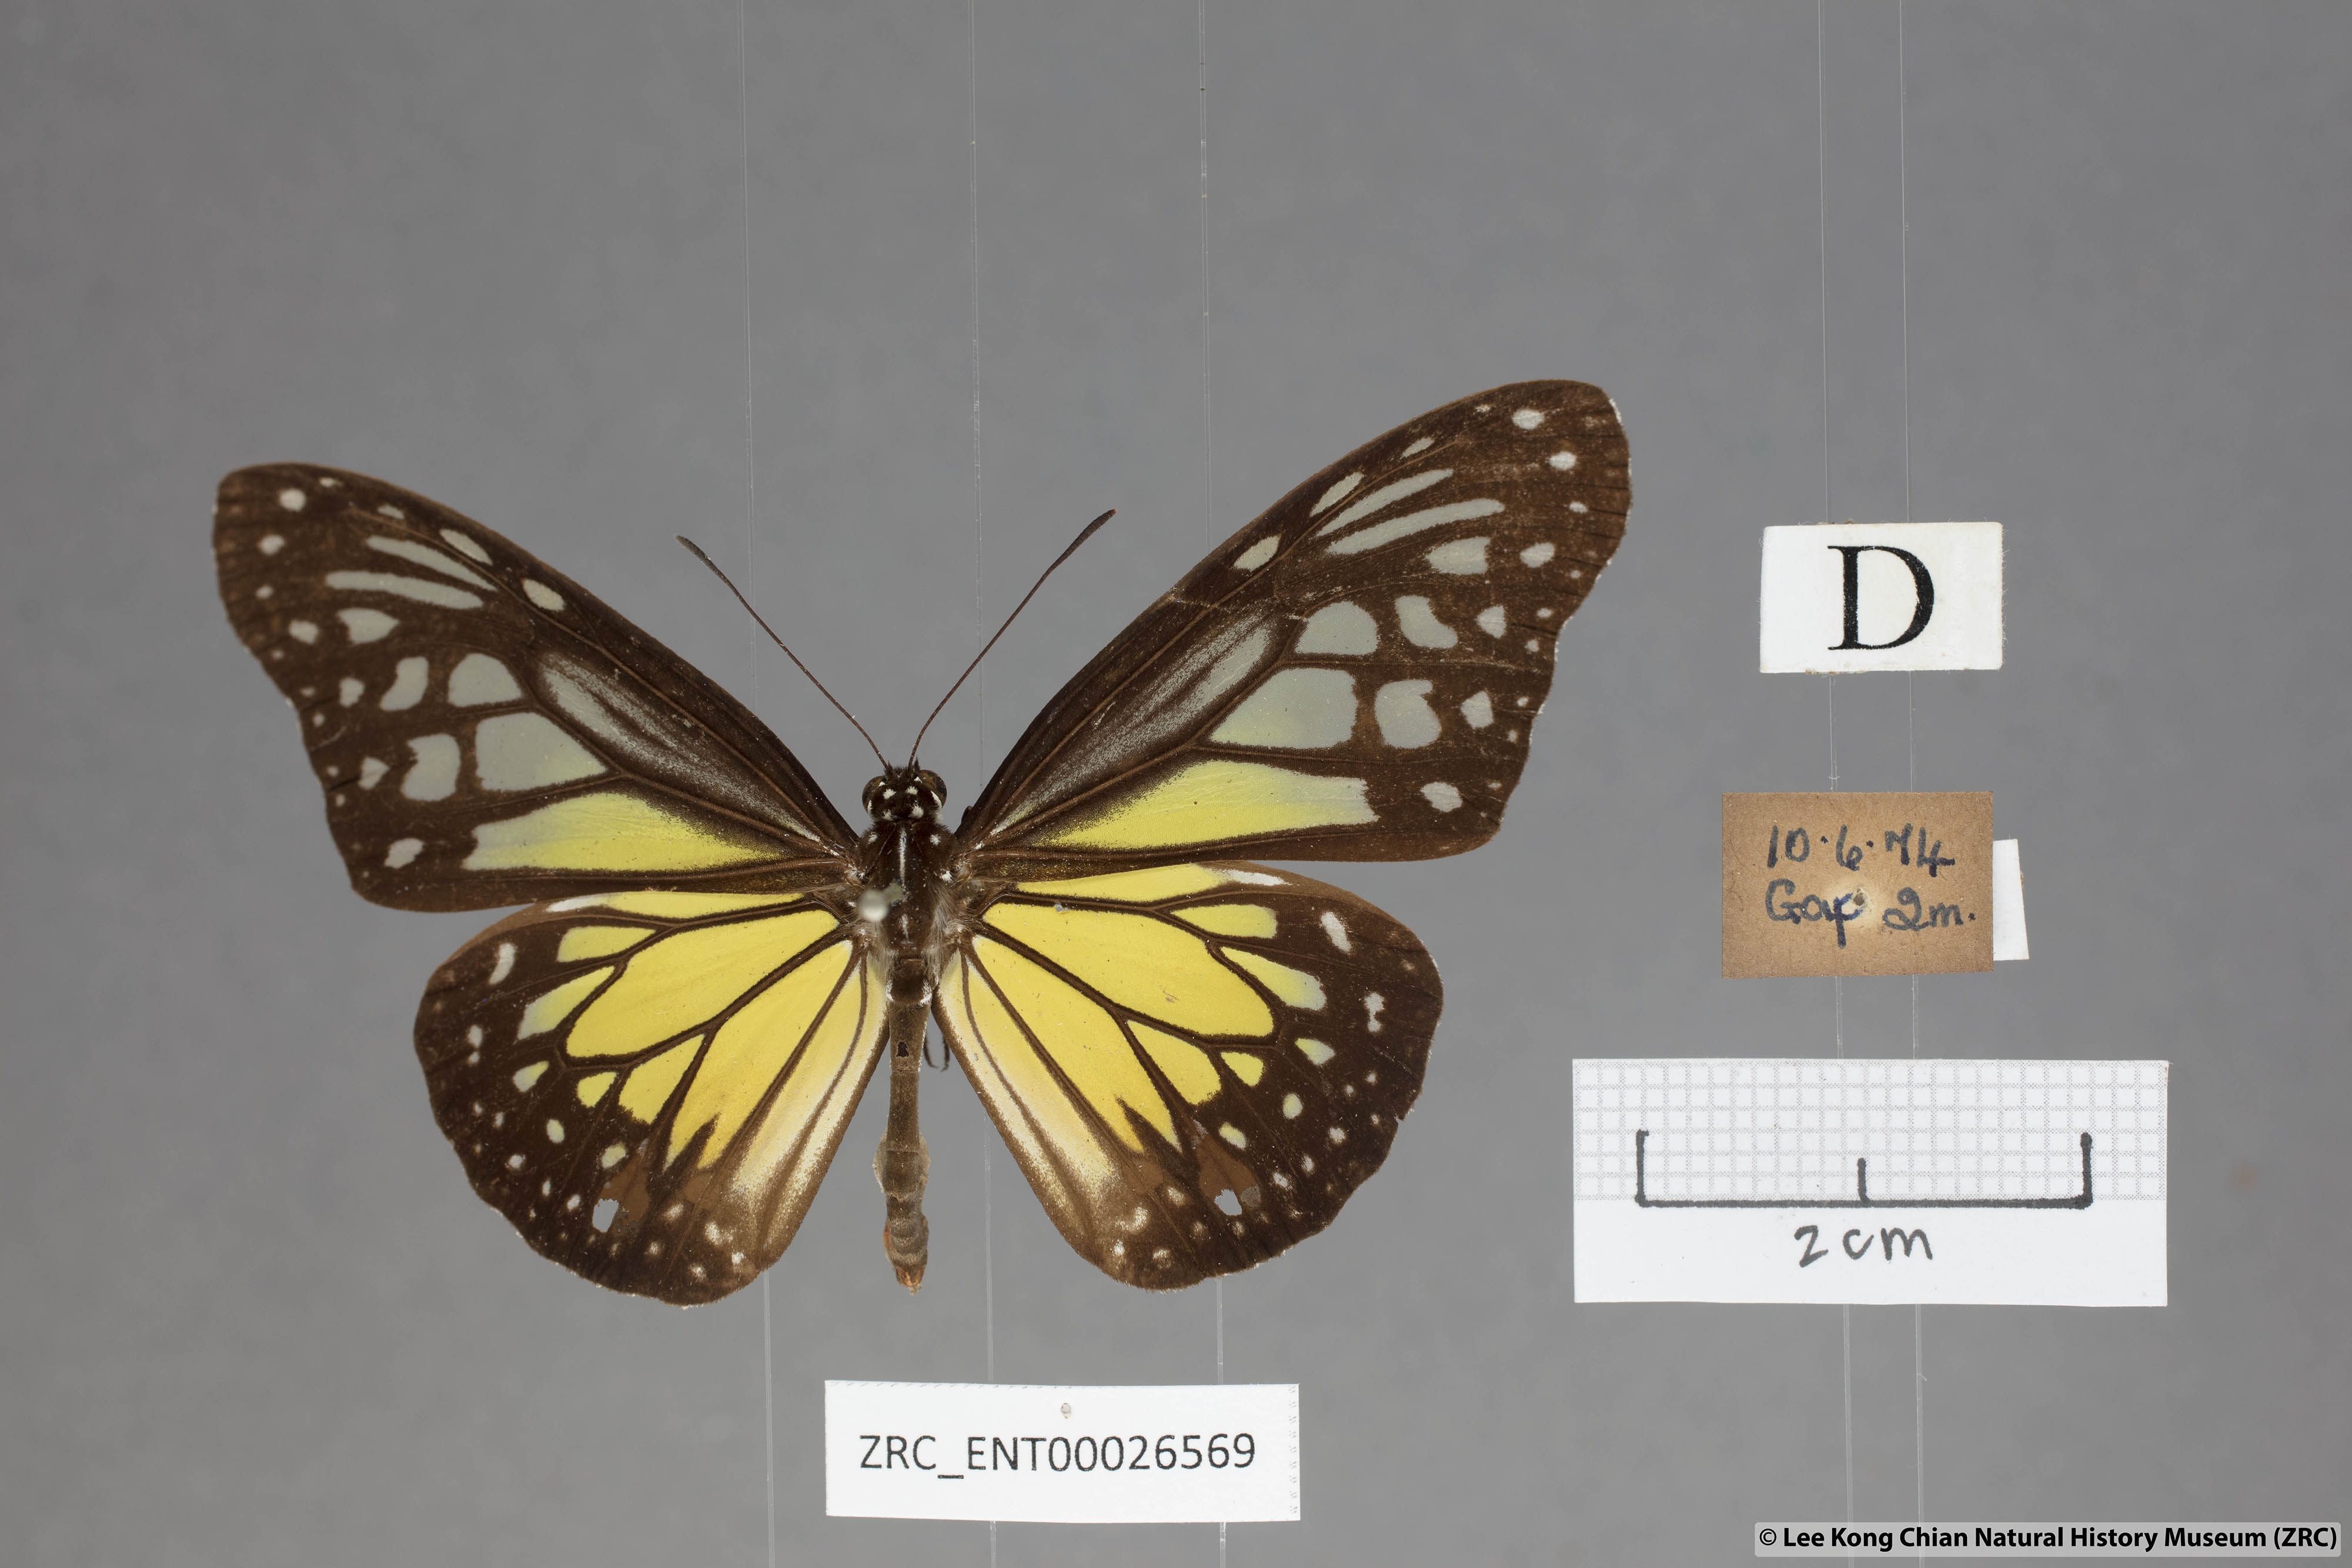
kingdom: Animalia
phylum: Arthropoda
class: Insecta
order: Lepidoptera
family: Nymphalidae
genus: Parantica
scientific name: Parantica aspasia
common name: Yellow glassy tiger
